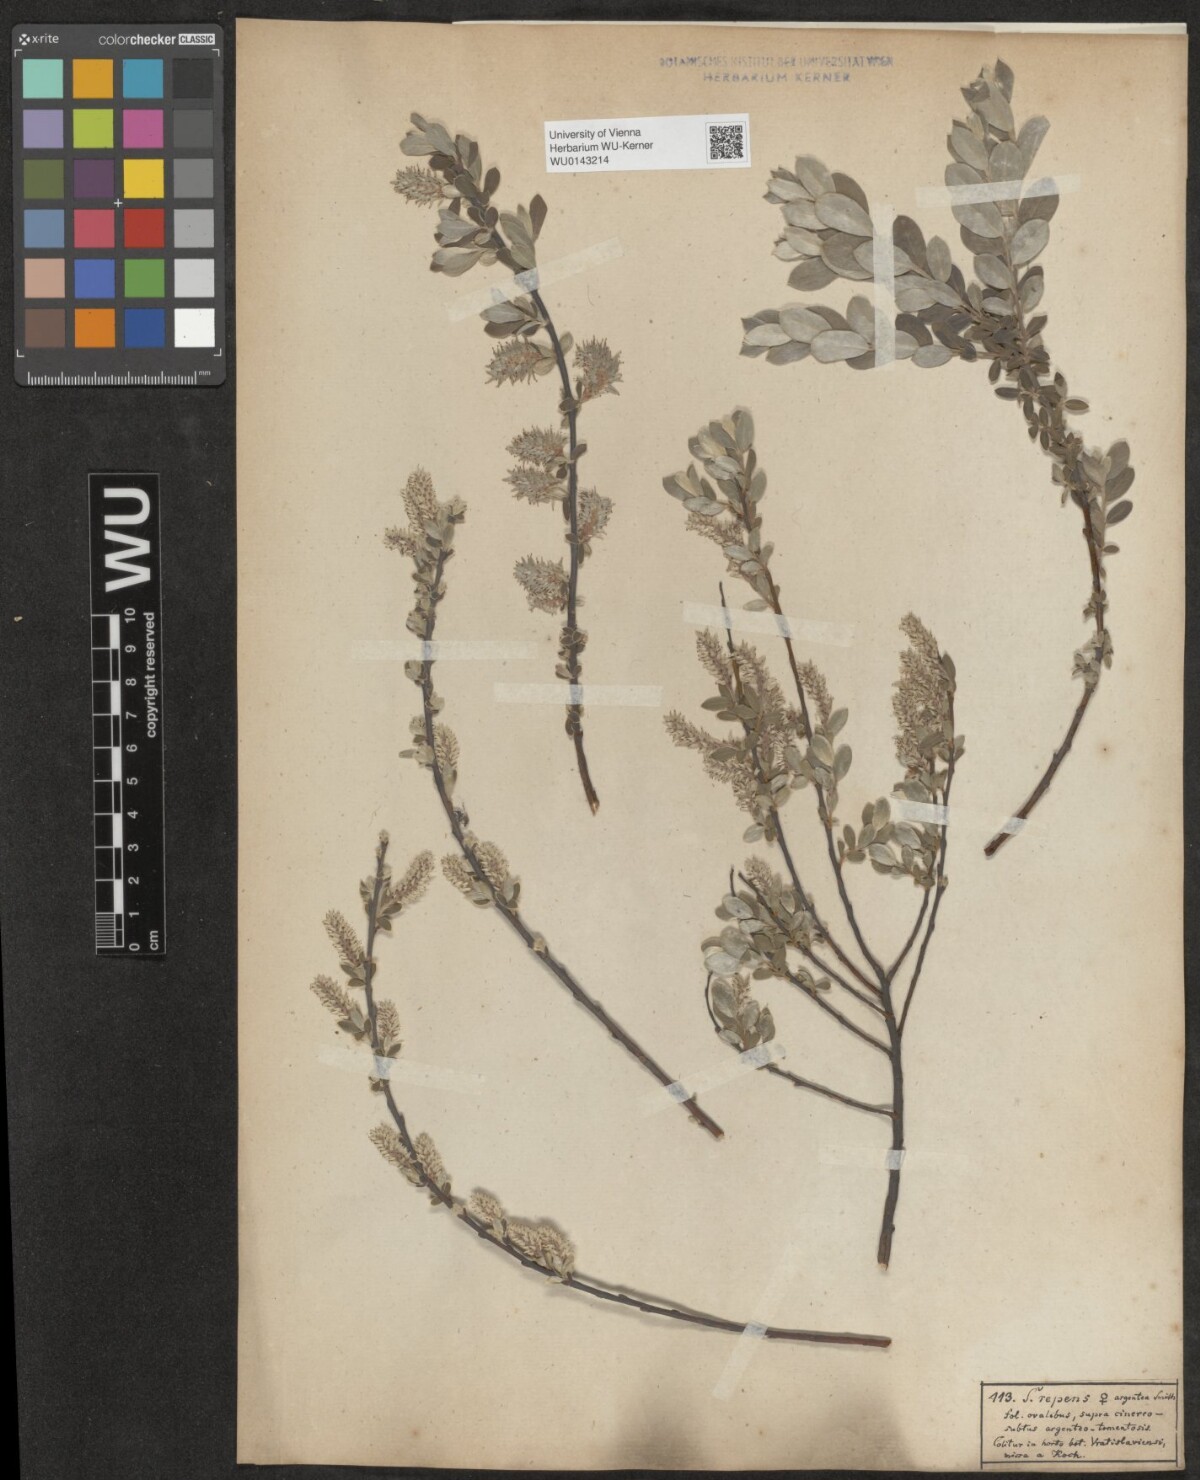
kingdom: Plantae
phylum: Tracheophyta
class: Magnoliopsida
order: Malpighiales
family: Salicaceae
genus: Salix
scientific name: Salix repens
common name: Creeping willow
